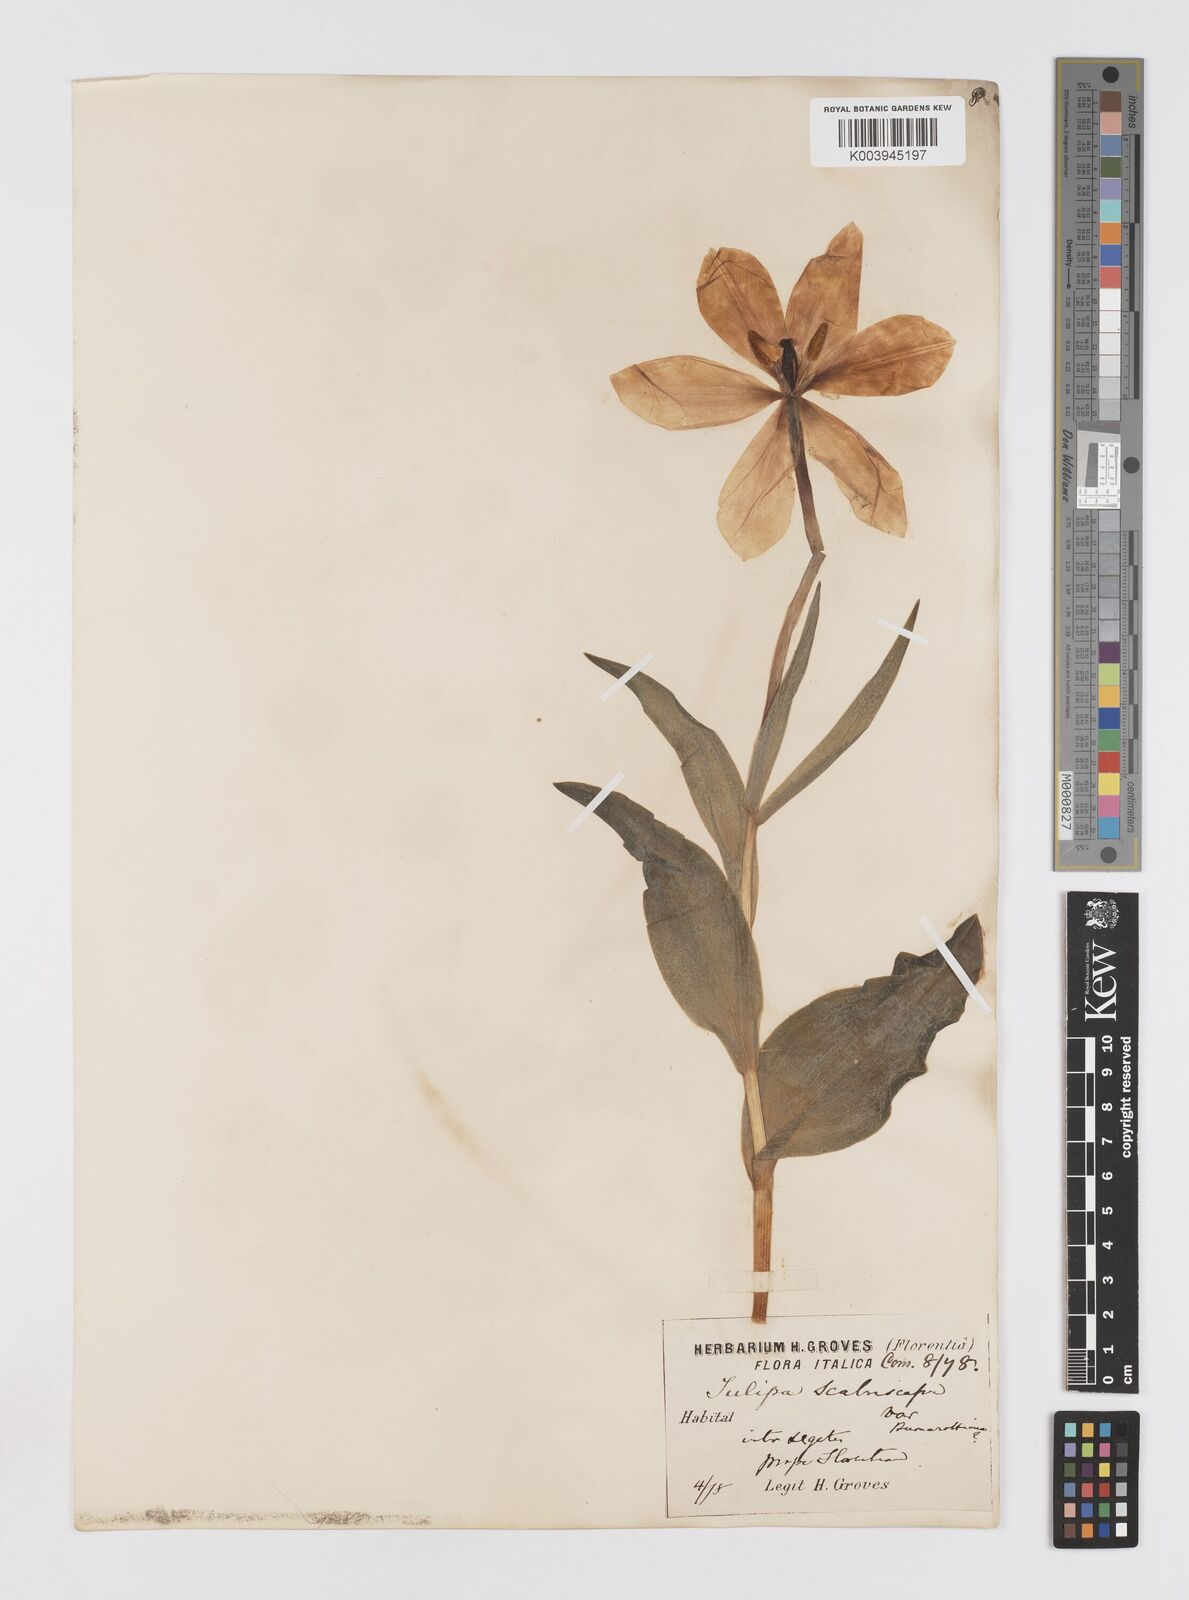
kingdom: Plantae
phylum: Tracheophyta
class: Liliopsida
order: Liliales
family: Liliaceae
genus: Tulipa
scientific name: Tulipa gesneriana
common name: Garden tulip
